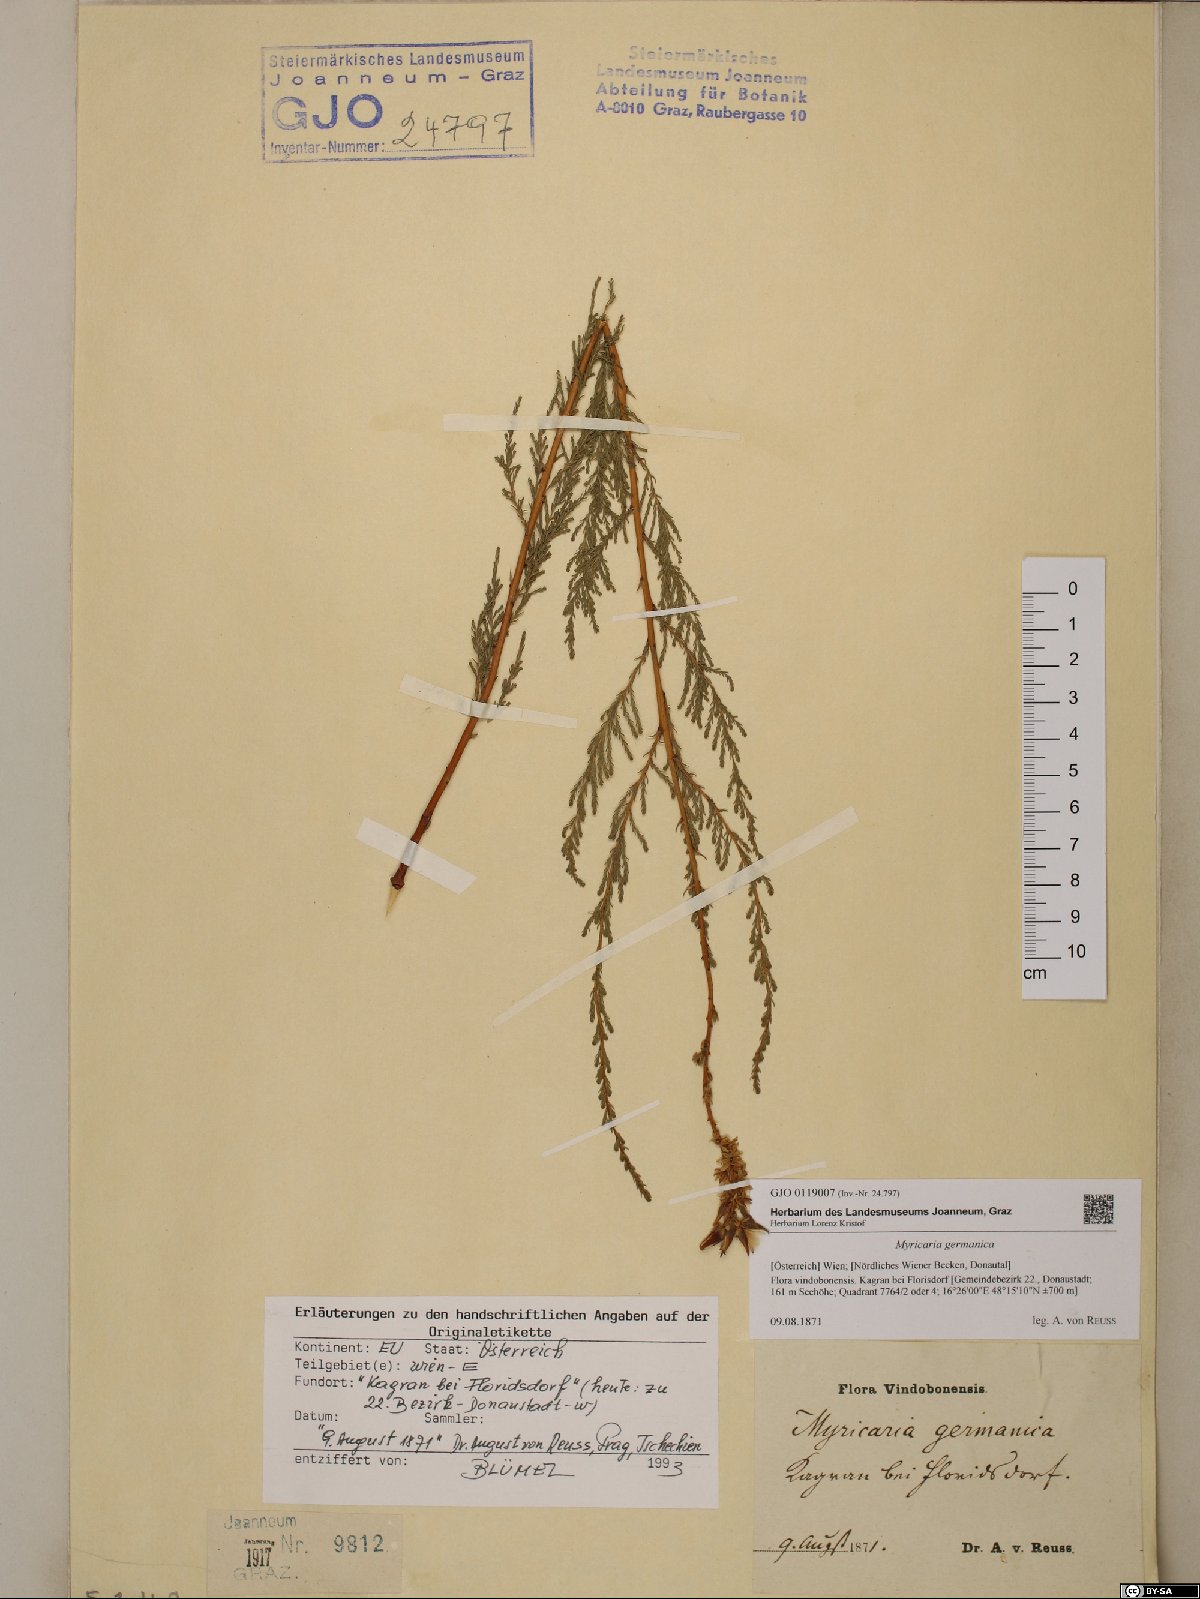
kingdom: Plantae
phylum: Tracheophyta
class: Magnoliopsida
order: Caryophyllales
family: Tamaricaceae
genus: Myricaria
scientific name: Myricaria germanica
